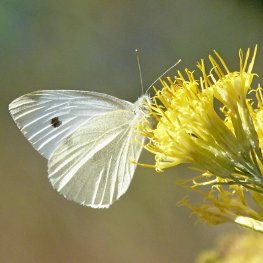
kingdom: Animalia
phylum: Arthropoda
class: Insecta
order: Lepidoptera
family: Pieridae
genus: Pieris
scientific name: Pieris rapae
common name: Cabbage White
